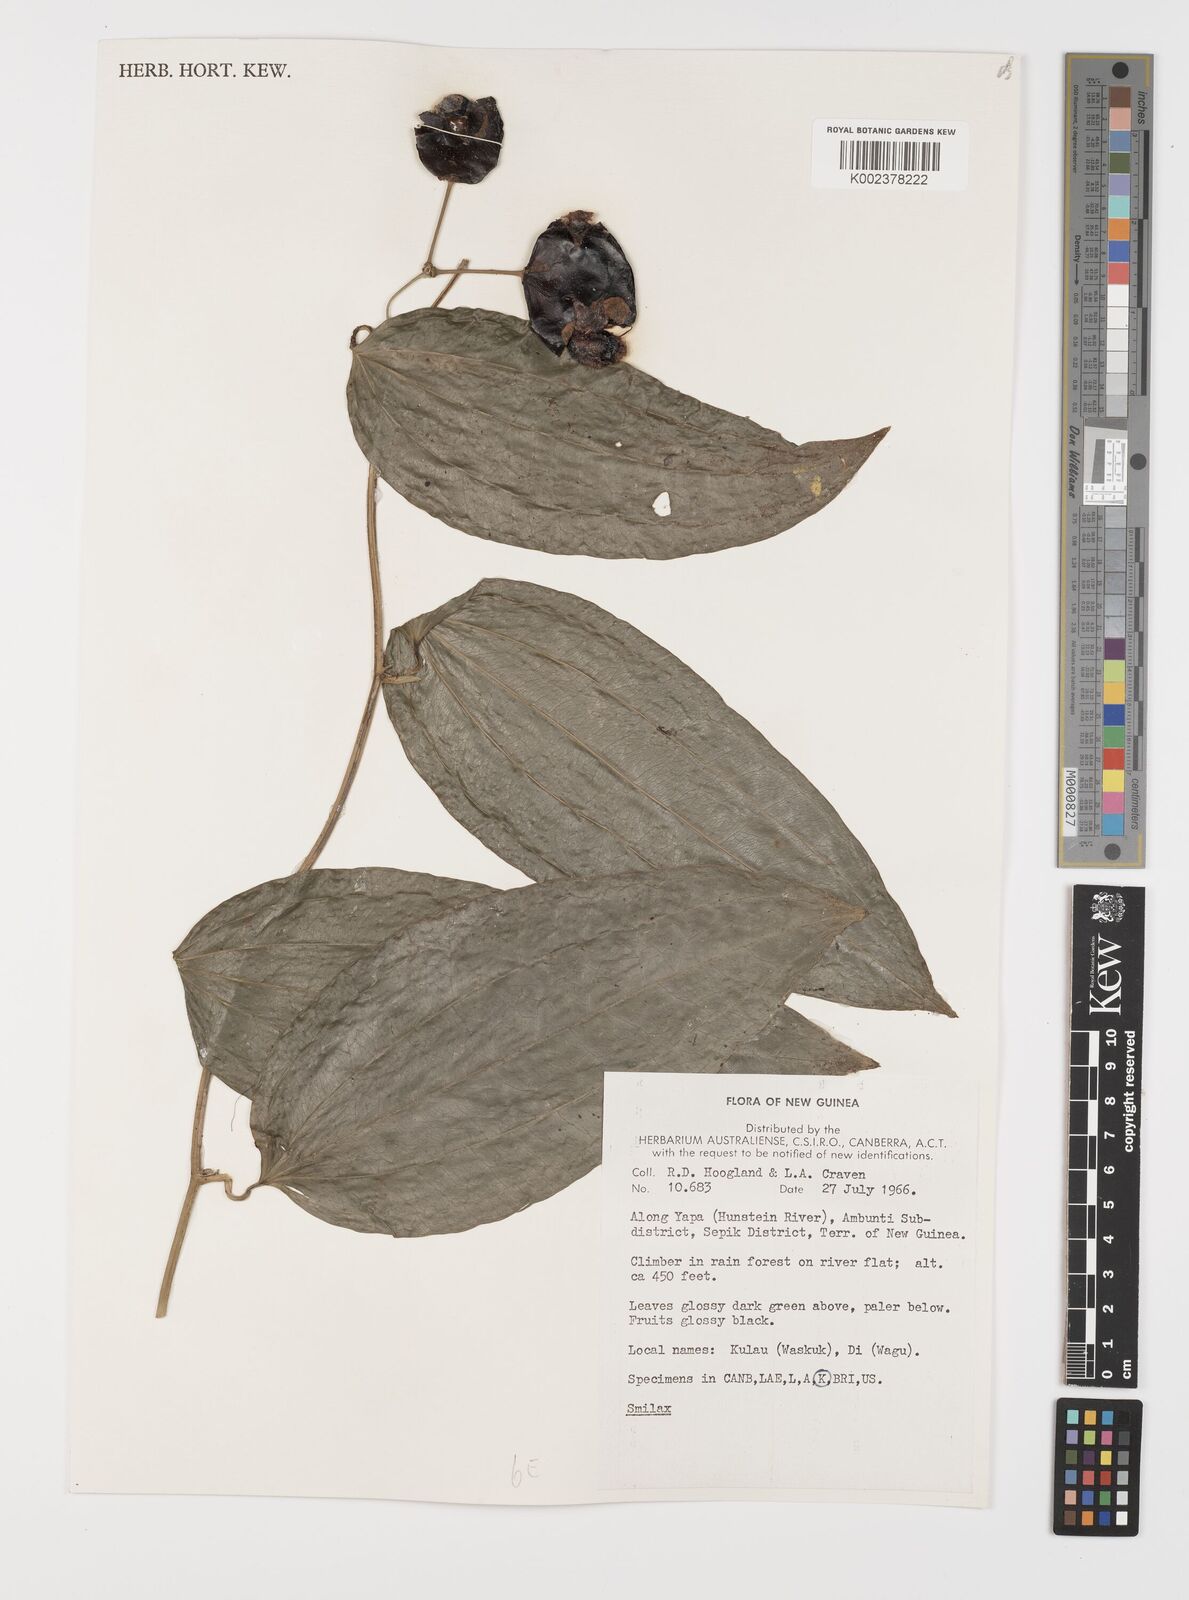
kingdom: Plantae
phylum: Tracheophyta
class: Liliopsida
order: Liliales
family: Smilacaceae
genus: Smilax
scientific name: Smilax
